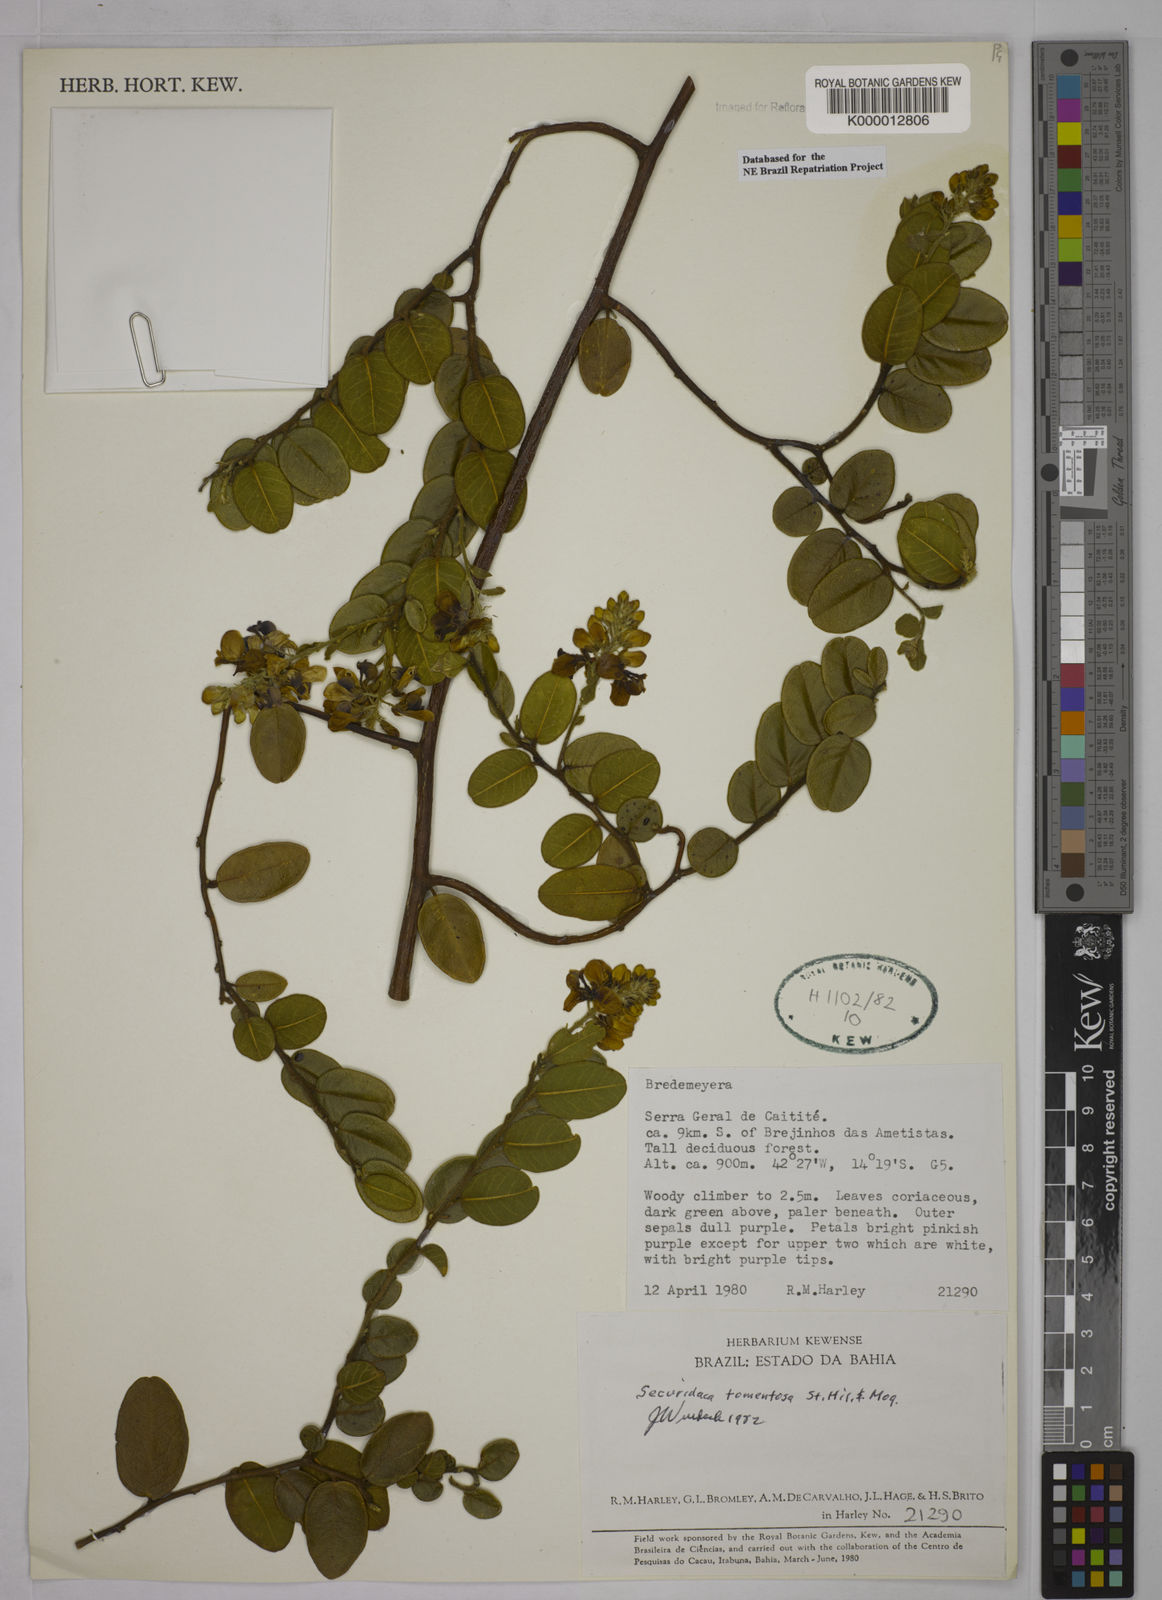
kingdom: Plantae
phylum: Tracheophyta
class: Magnoliopsida
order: Fabales
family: Polygalaceae
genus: Securidaca
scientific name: Securidaca tomentosa
